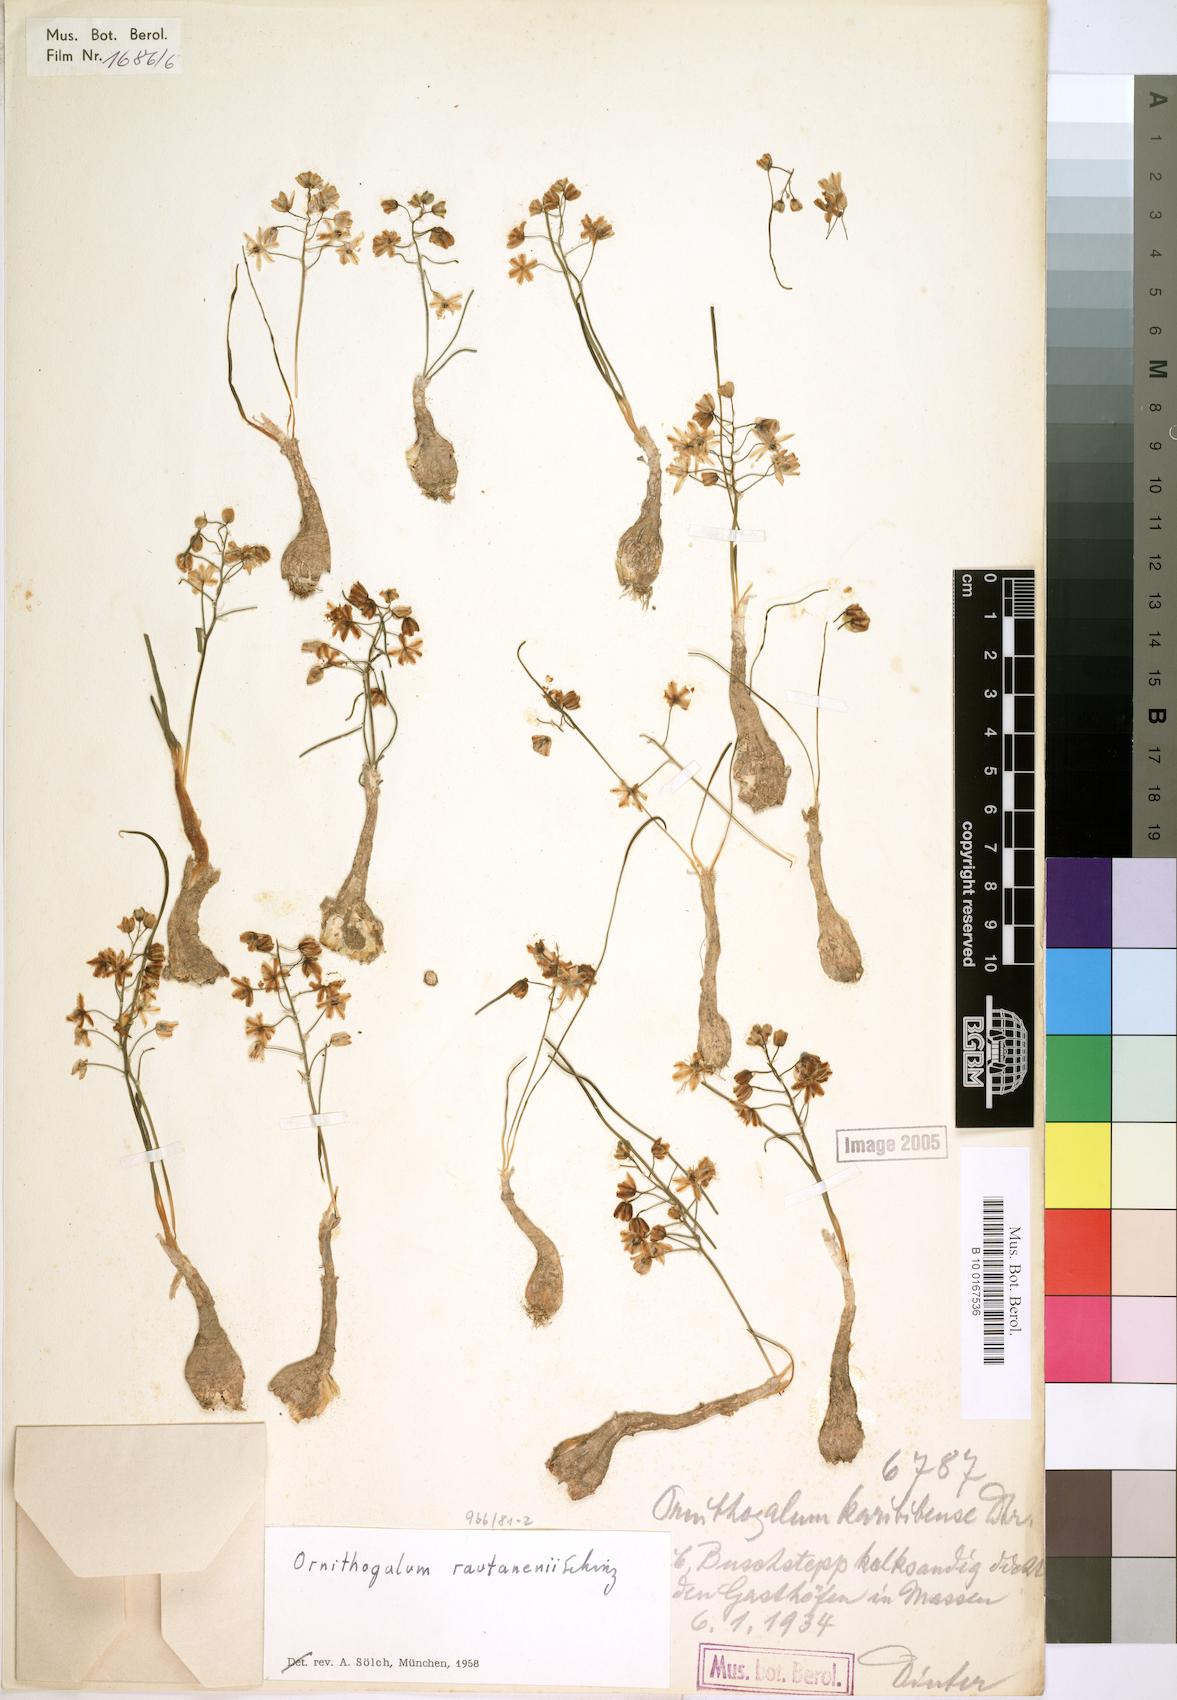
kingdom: Plantae
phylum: Tracheophyta
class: Liliopsida
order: Asparagales
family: Asparagaceae
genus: Albuca
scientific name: Albuca rautanenii
